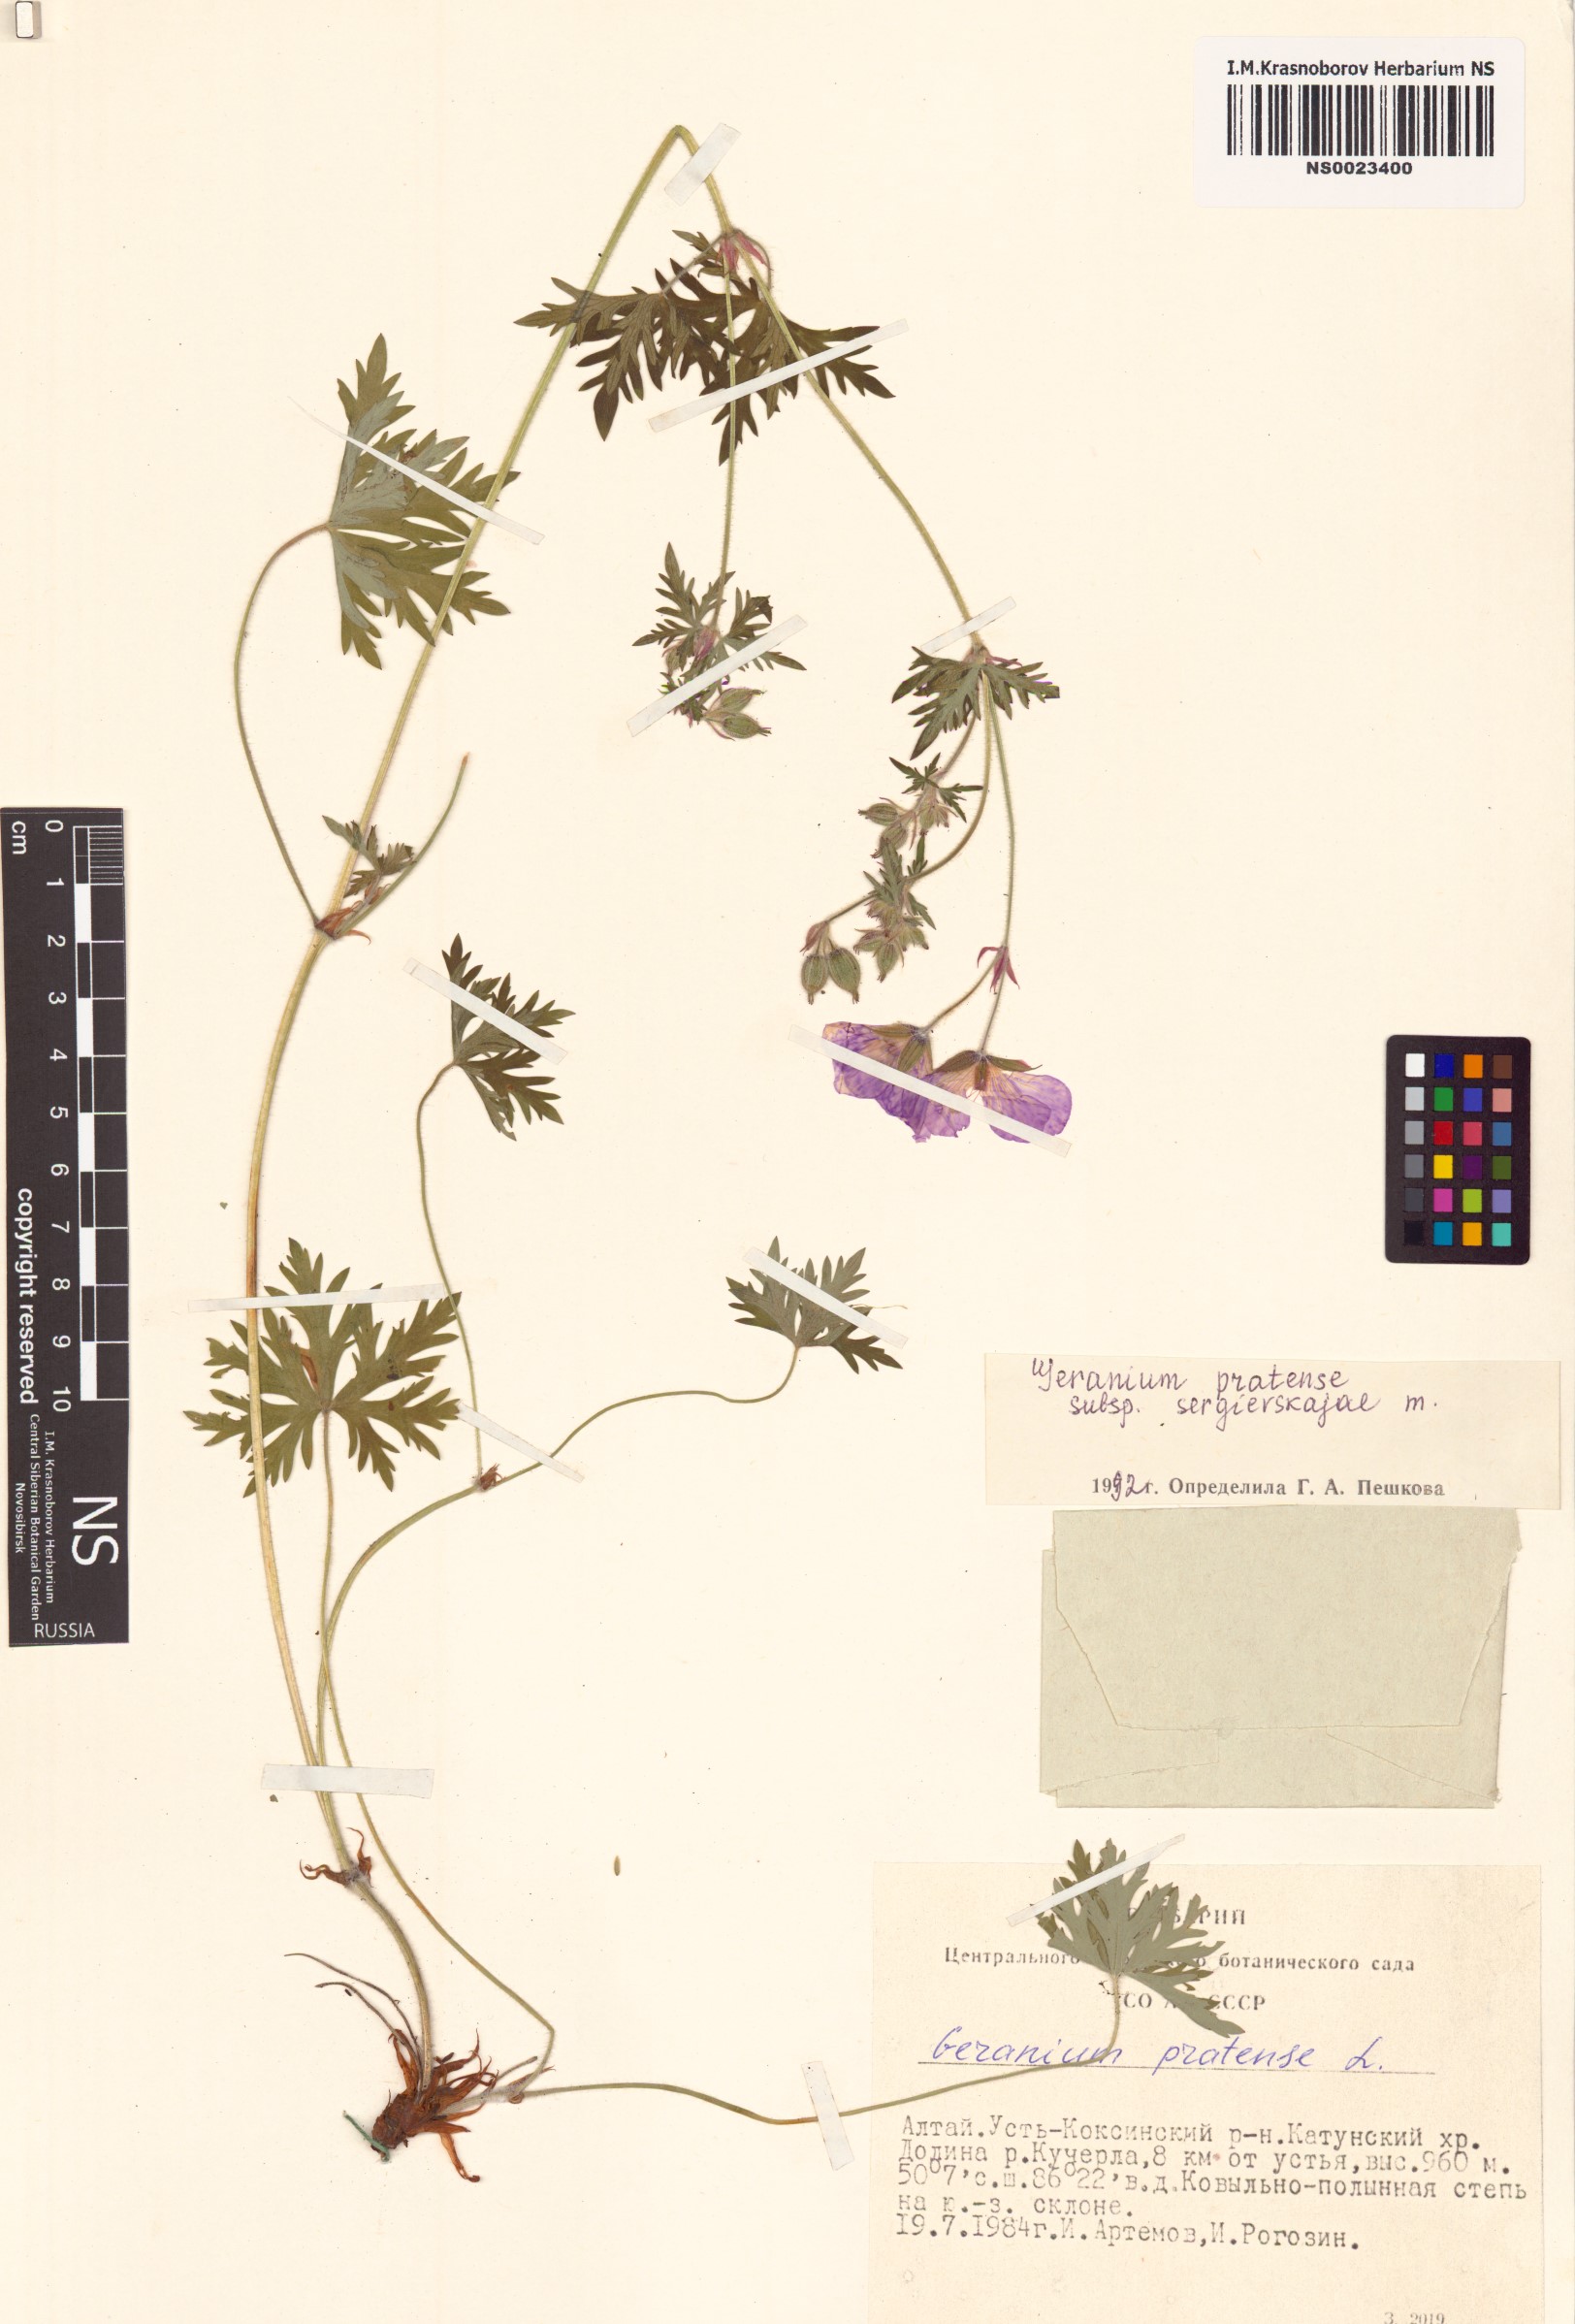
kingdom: Plantae
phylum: Tracheophyta
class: Magnoliopsida
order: Geraniales
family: Geraniaceae
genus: Geranium
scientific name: Geranium pratense
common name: Meadow crane's-bill
